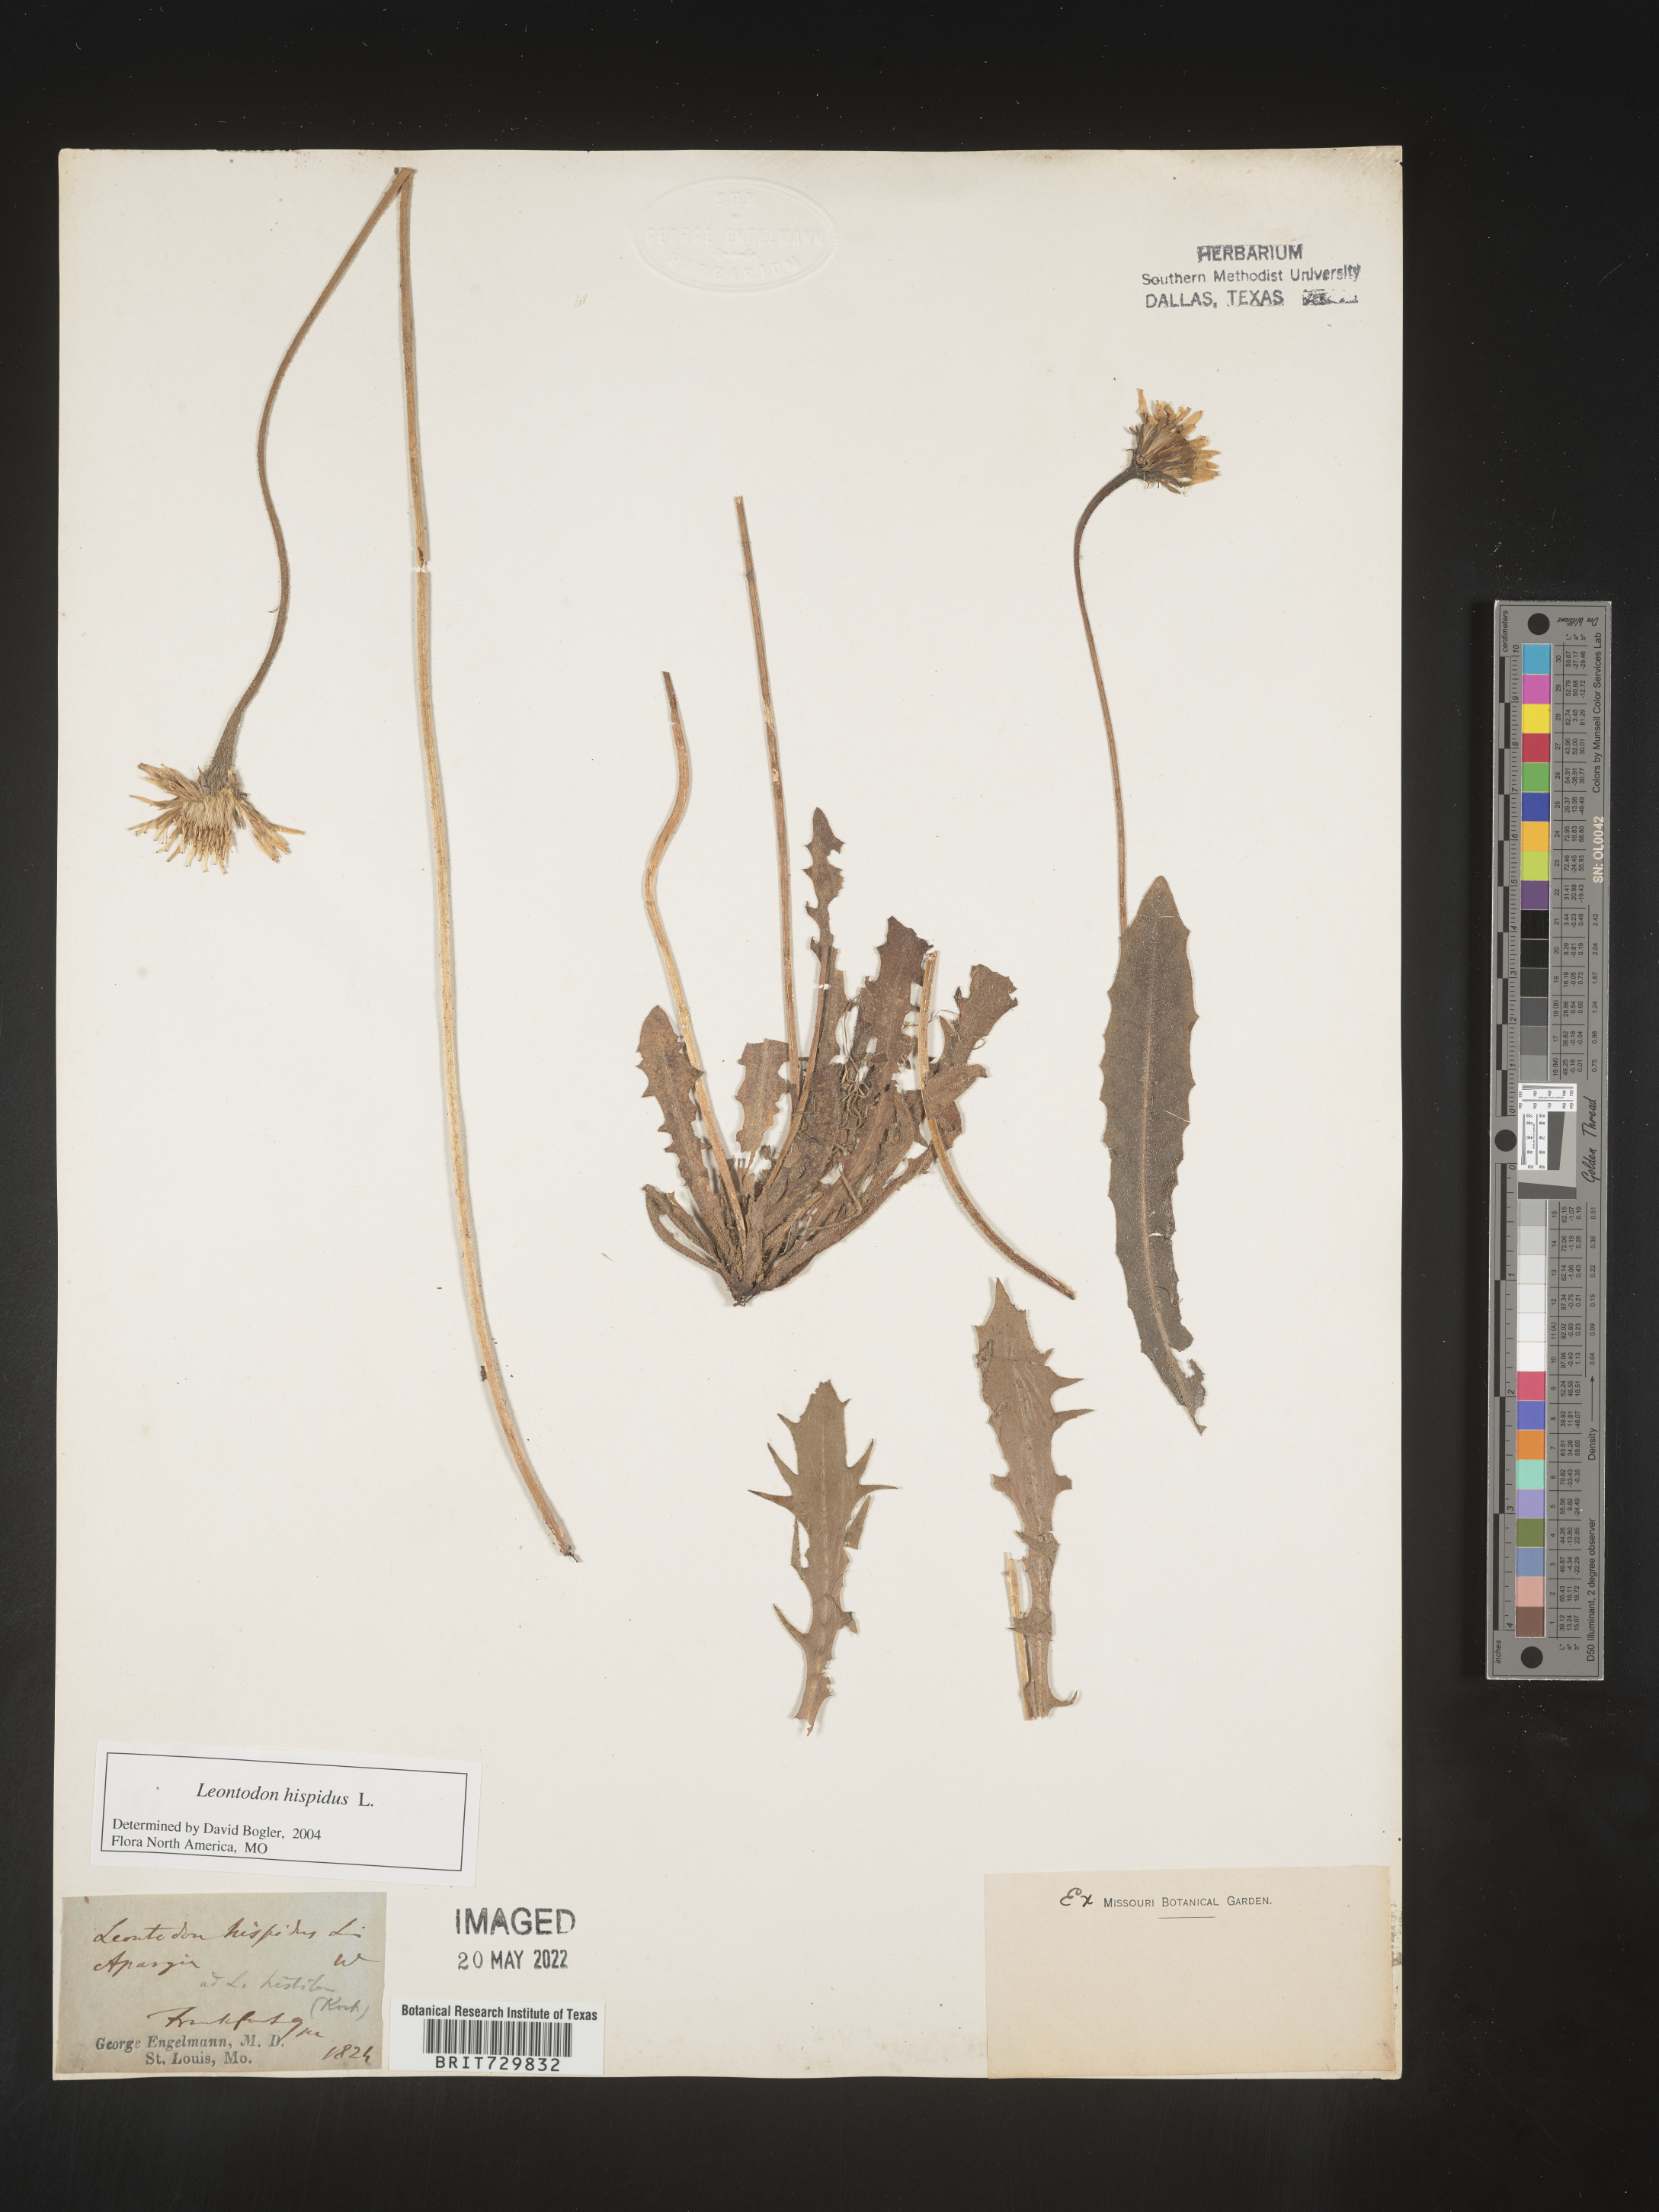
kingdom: Plantae
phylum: Tracheophyta
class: Magnoliopsida
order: Asterales
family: Asteraceae
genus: Leontodon
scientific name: Leontodon
